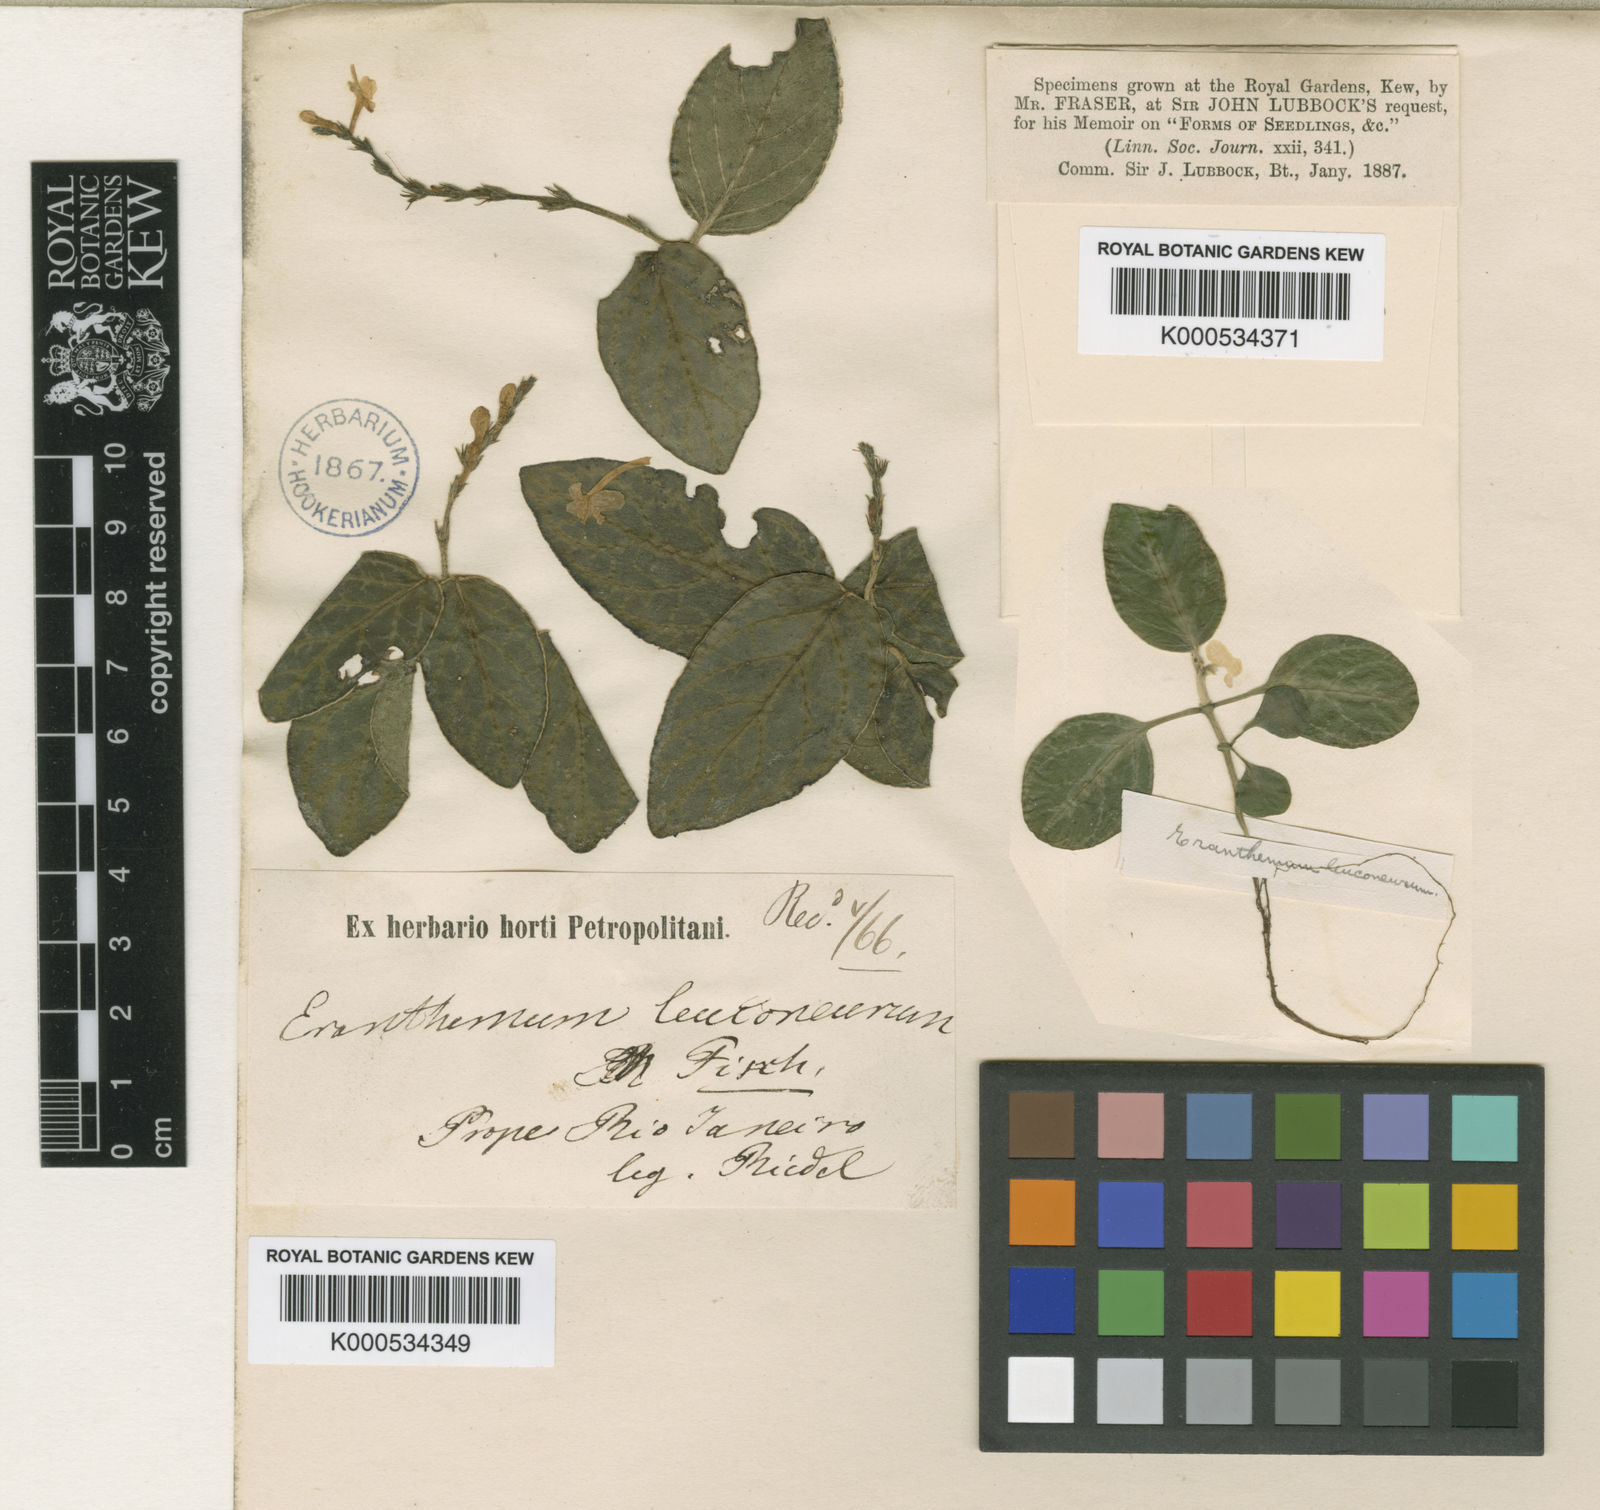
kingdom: Plantae
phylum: Tracheophyta
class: Magnoliopsida
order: Lamiales
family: Acanthaceae
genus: Chamaeranthemum
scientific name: Chamaeranthemum beyrichii
